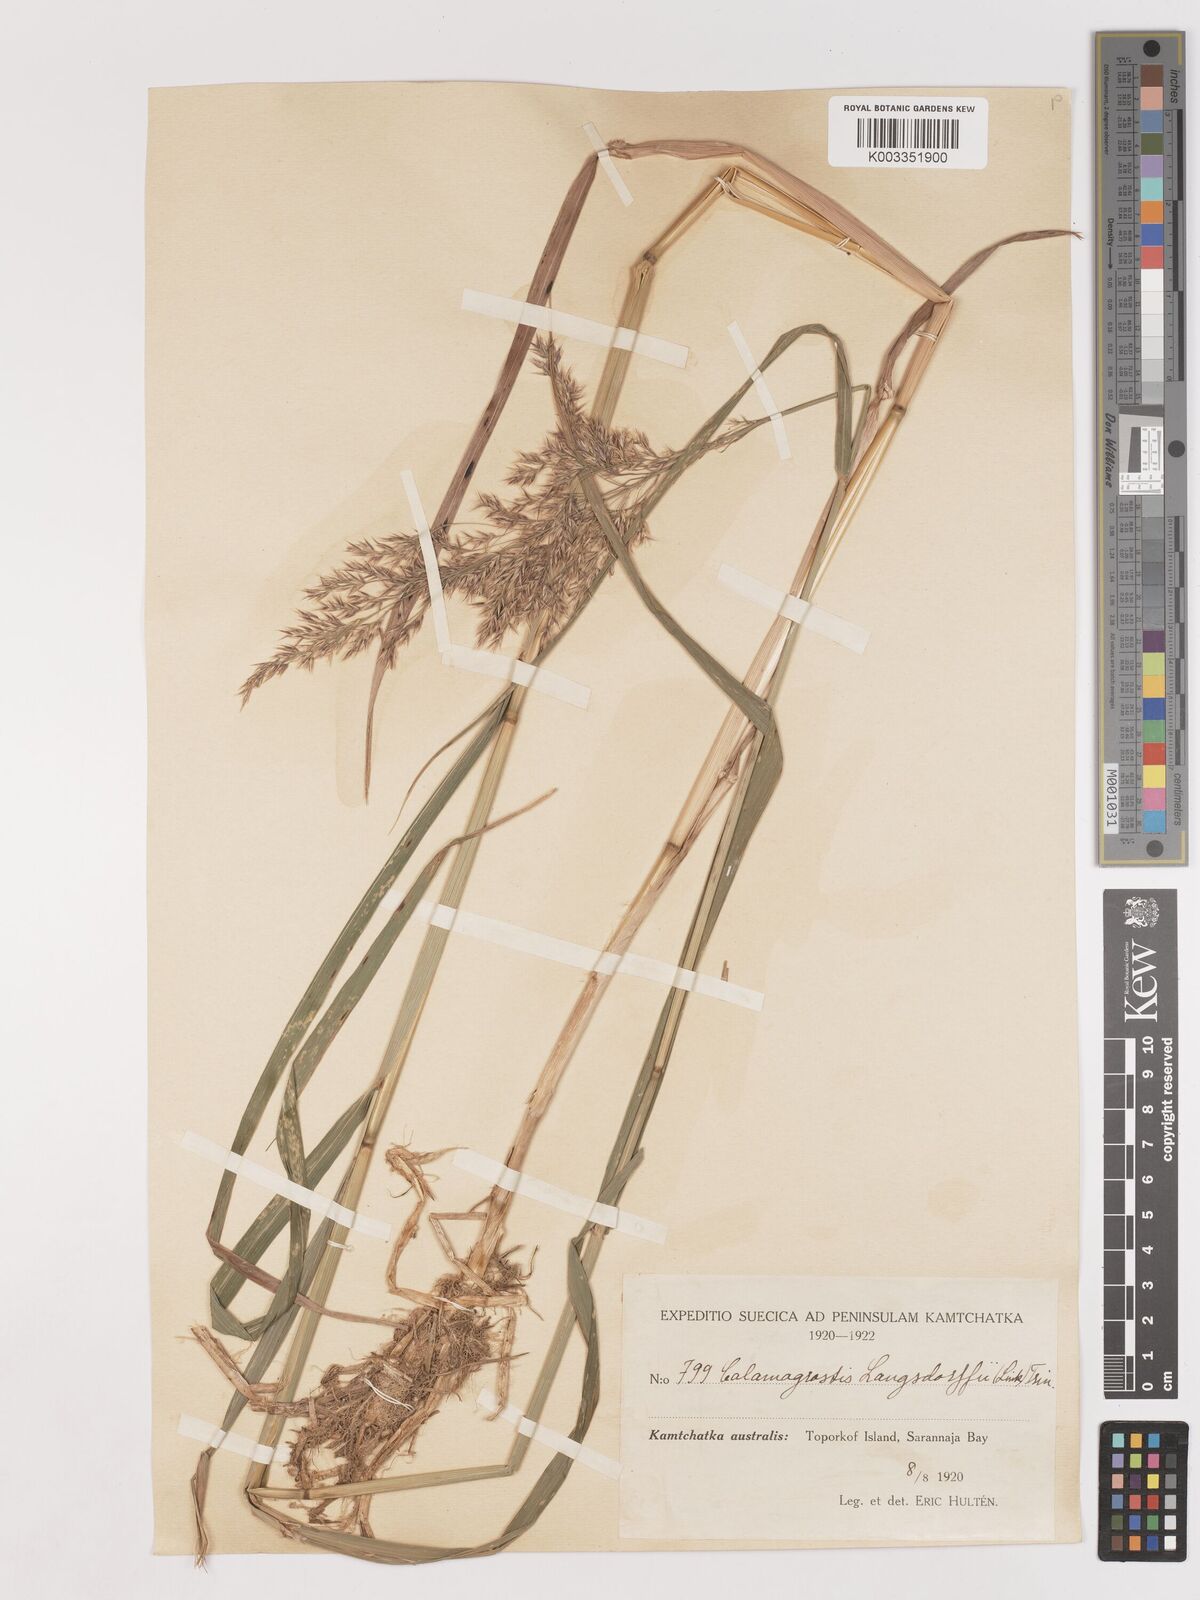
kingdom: Plantae
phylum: Tracheophyta
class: Liliopsida
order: Poales
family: Poaceae
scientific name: Poaceae
